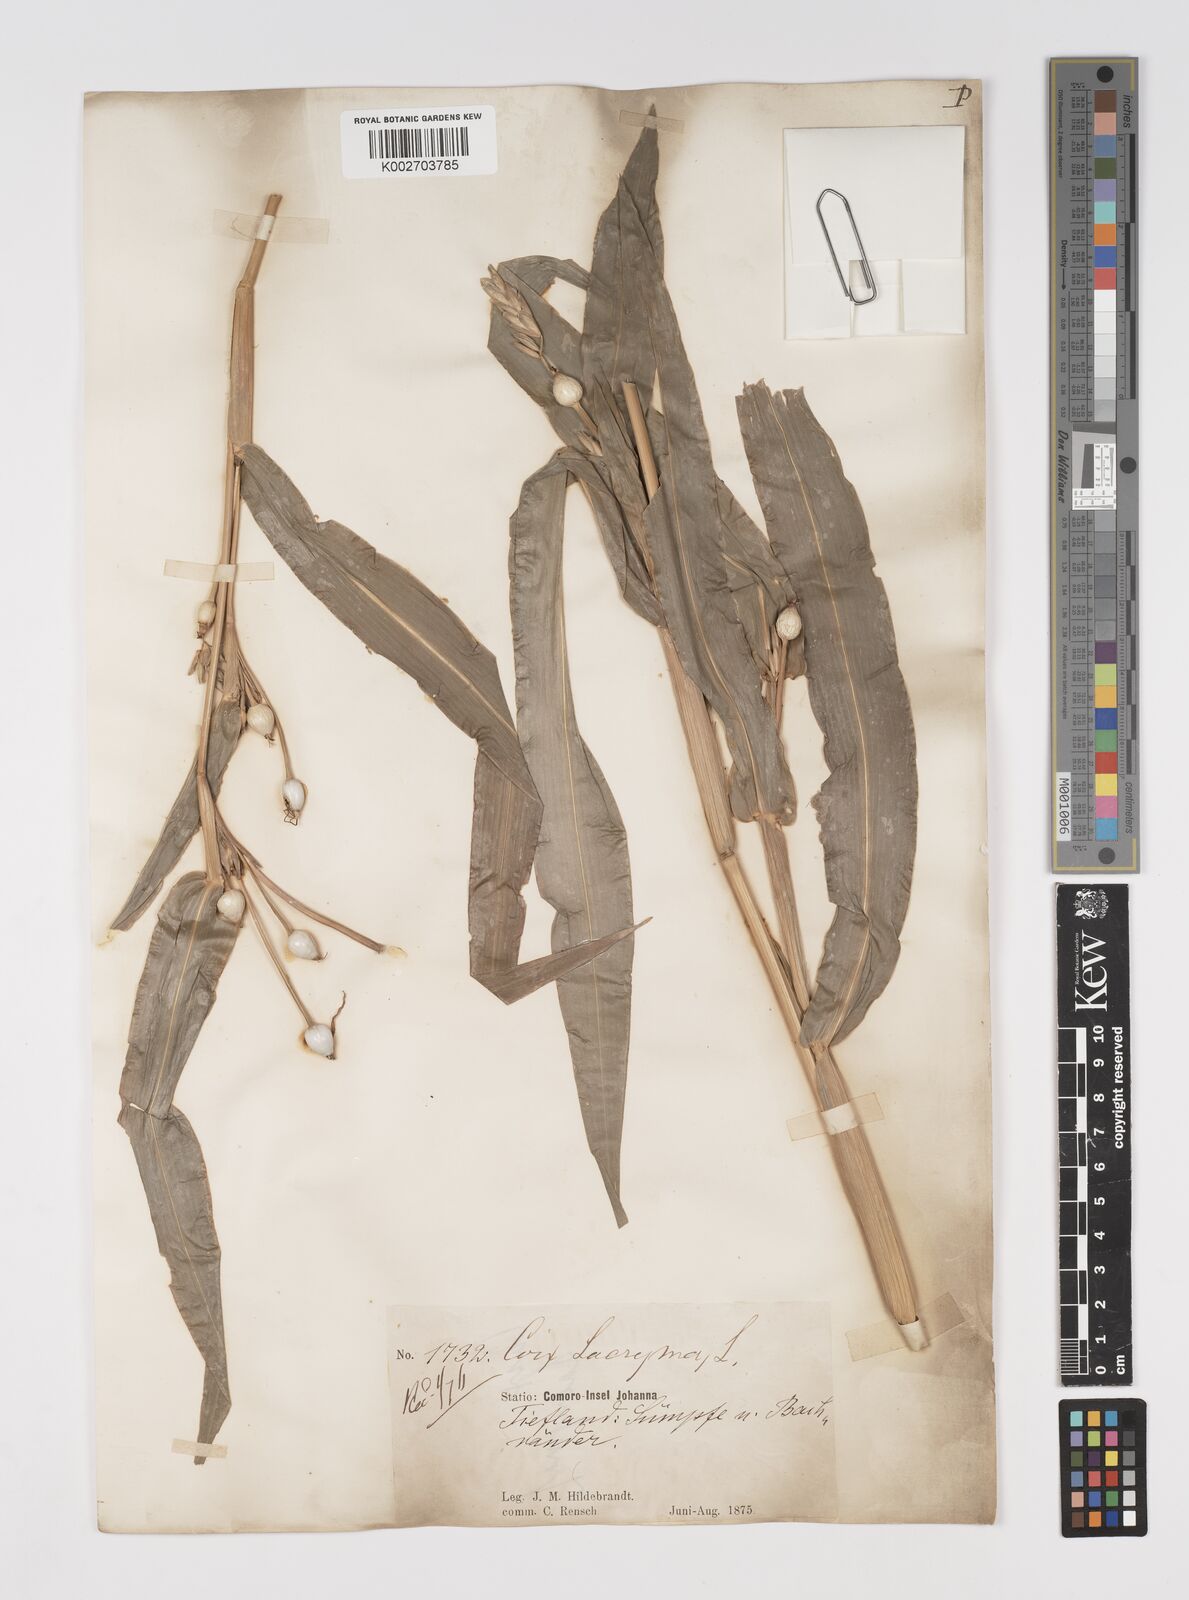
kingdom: Plantae
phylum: Tracheophyta
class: Liliopsida
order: Poales
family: Poaceae
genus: Coix
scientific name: Coix lacryma-jobi
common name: Job's tears
